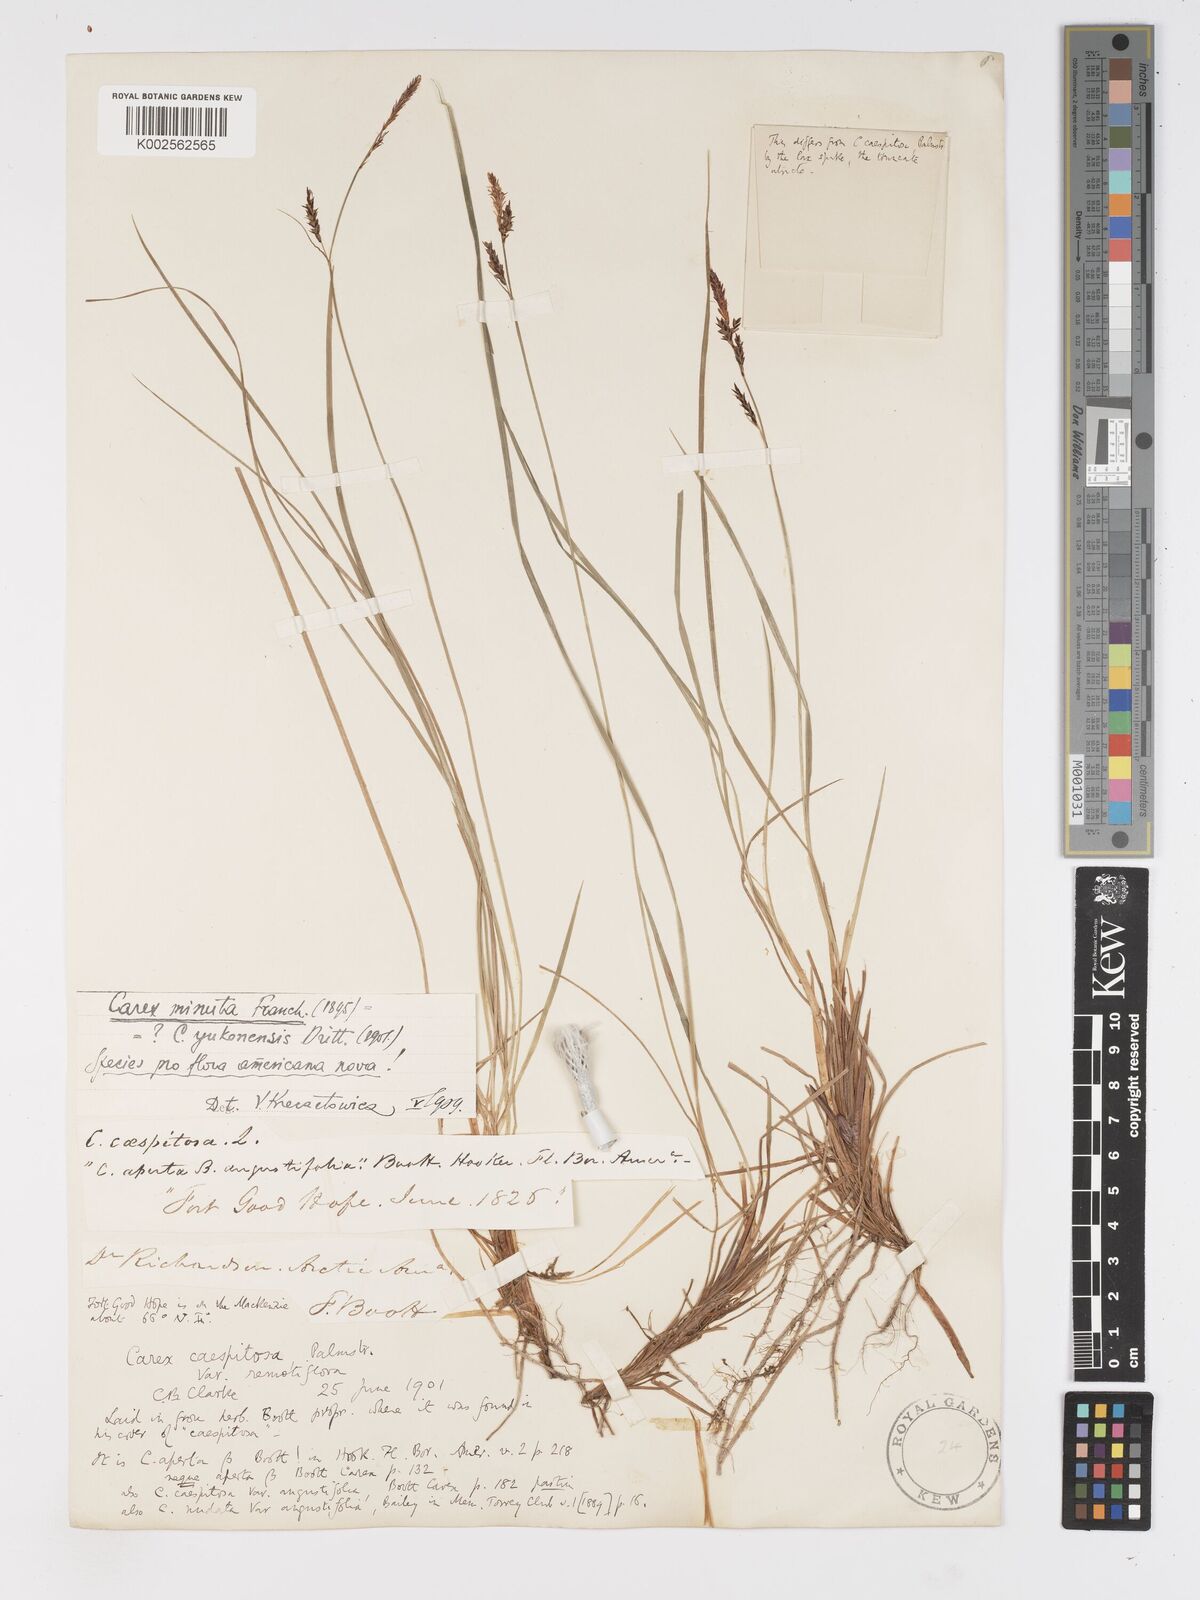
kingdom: Plantae
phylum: Tracheophyta
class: Liliopsida
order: Poales
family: Cyperaceae
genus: Carex
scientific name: Carex bigelowii
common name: Stiff sedge
